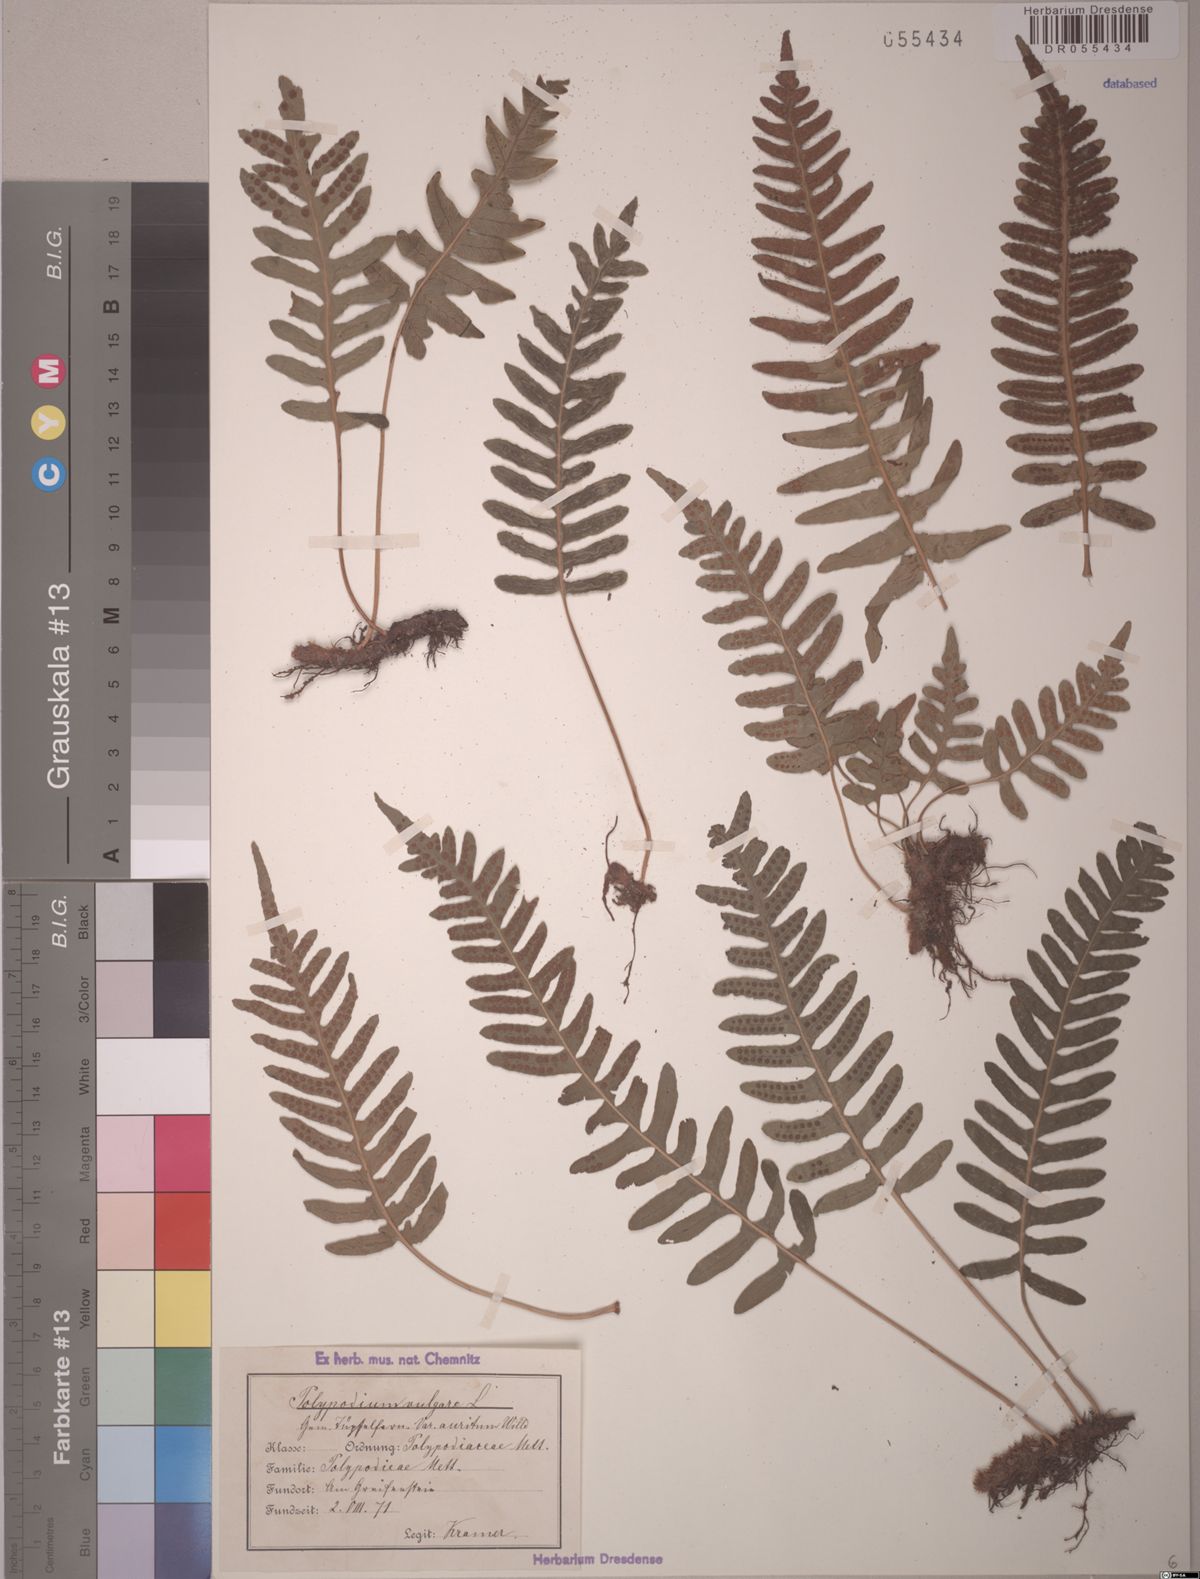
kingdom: Plantae
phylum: Tracheophyta
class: Polypodiopsida
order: Polypodiales
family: Polypodiaceae
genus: Polypodium
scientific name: Polypodium vulgare
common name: Common polypody
